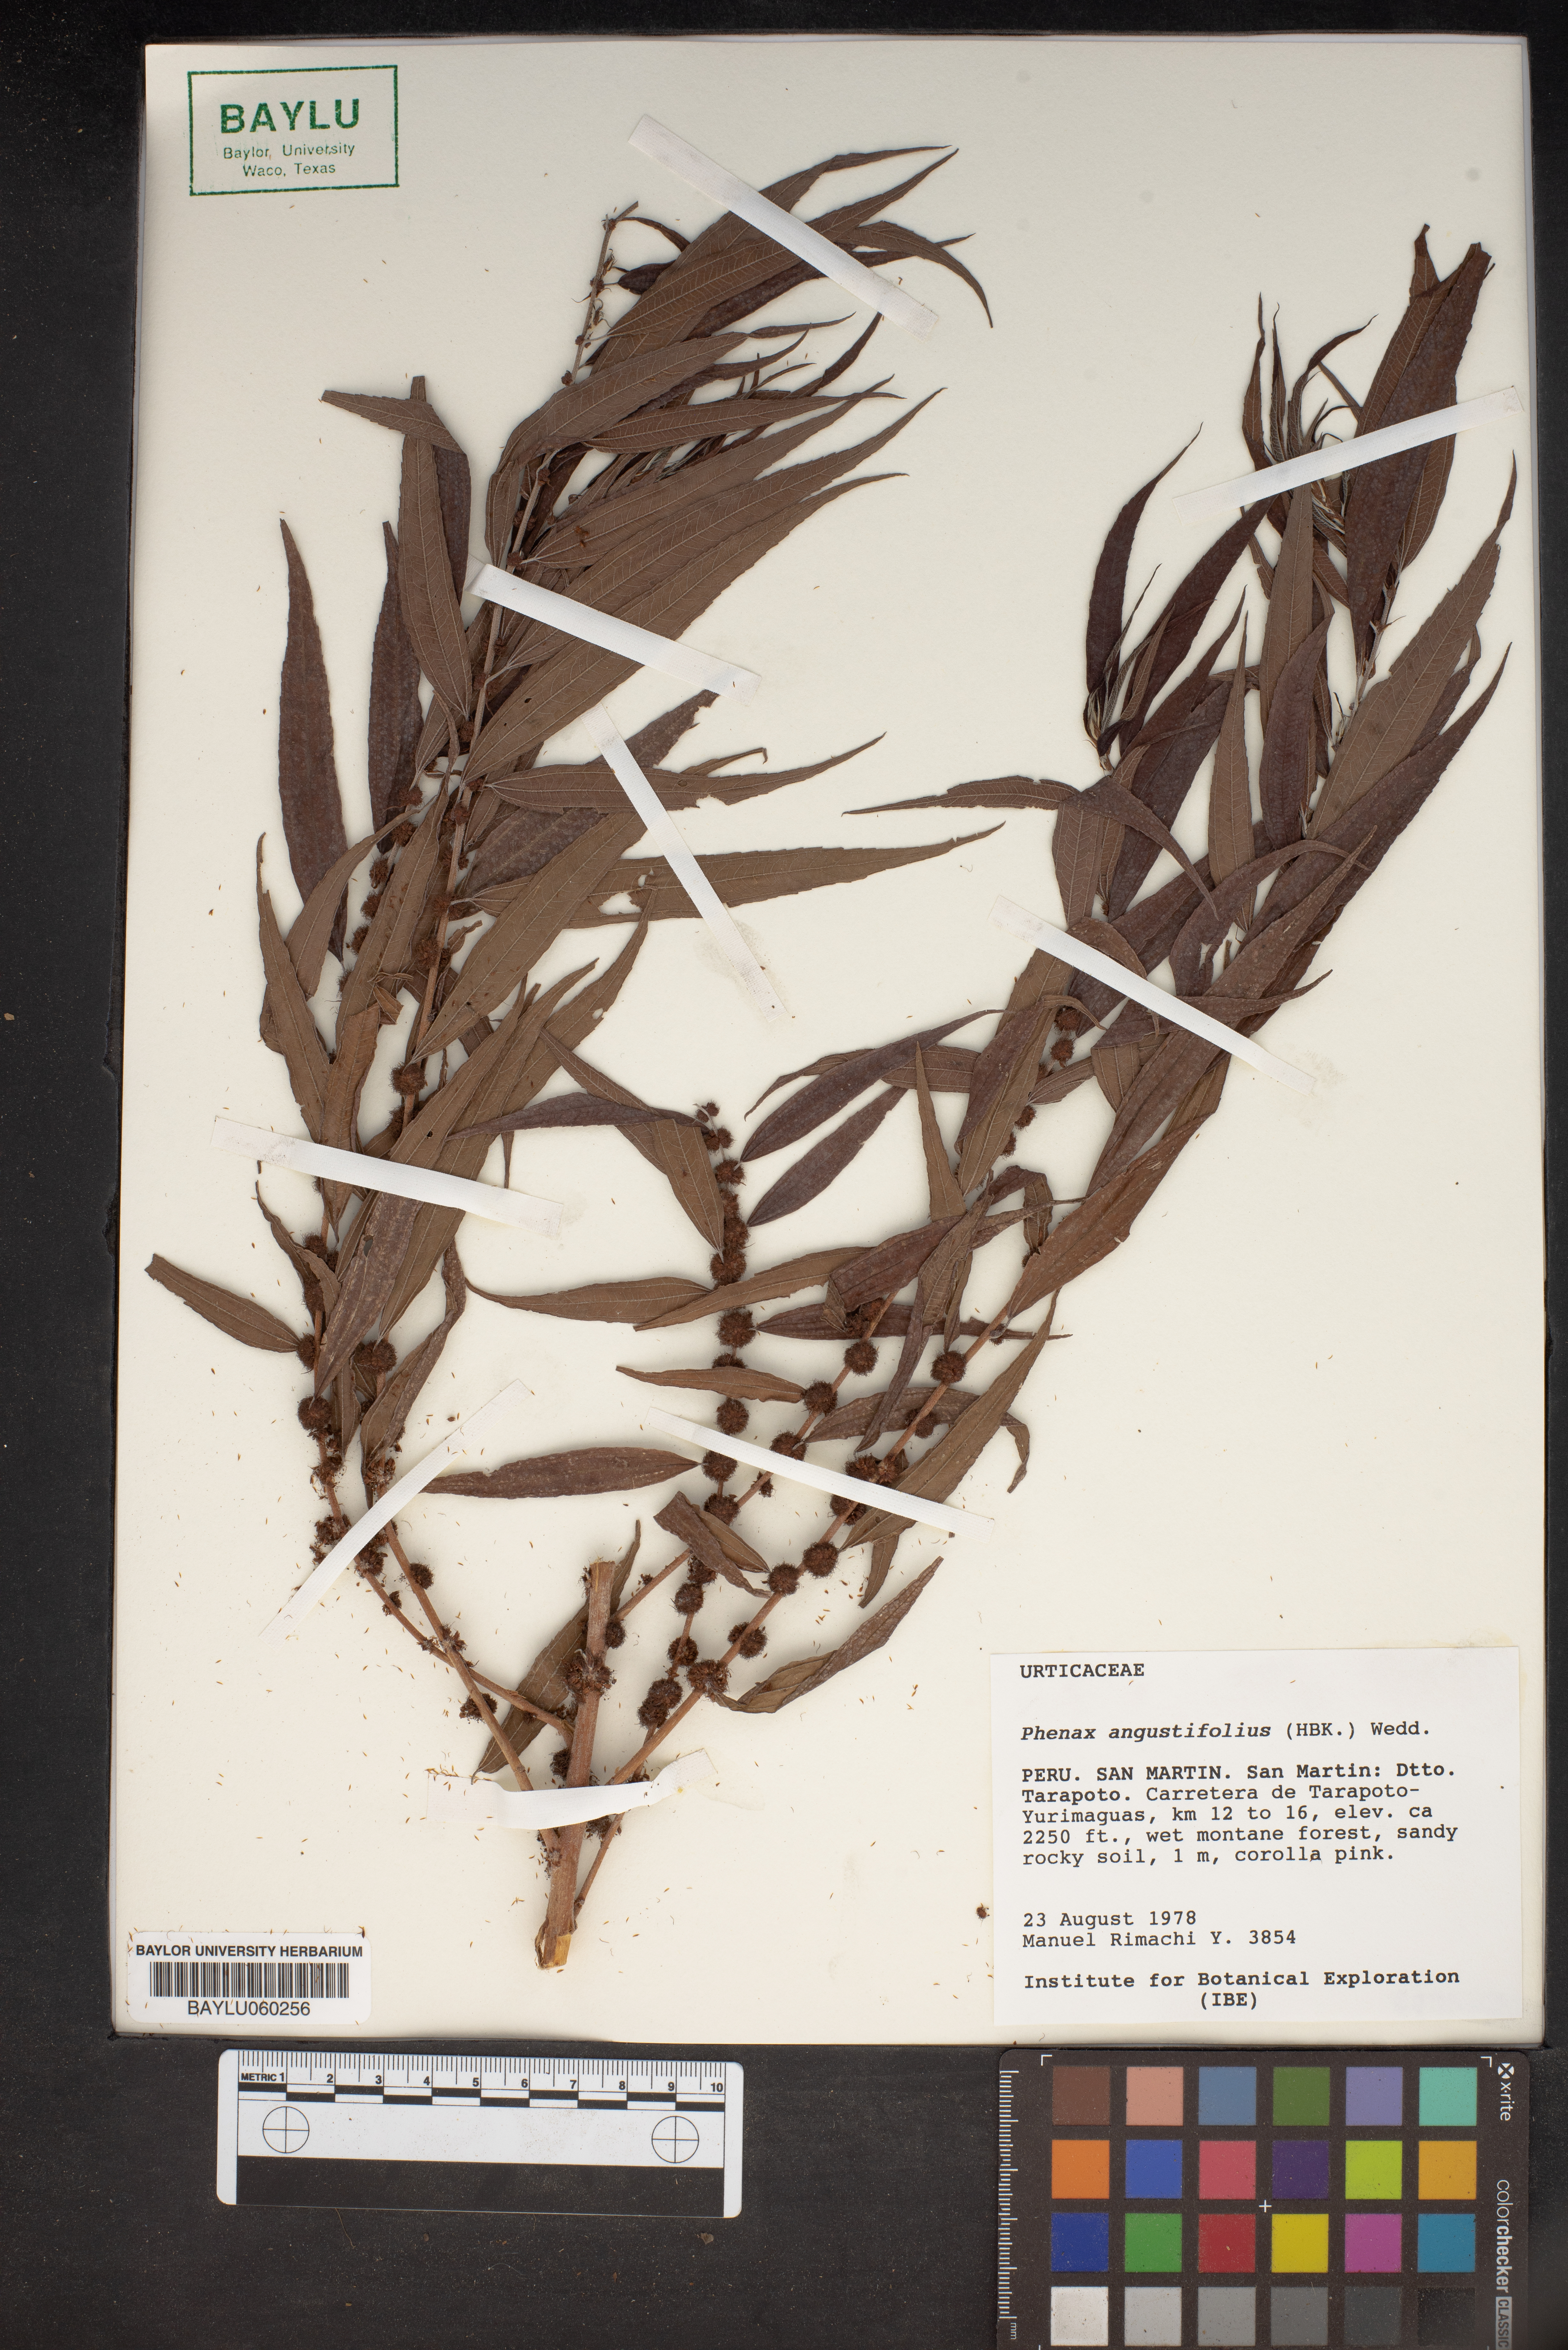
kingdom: Plantae
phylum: Tracheophyta
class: Magnoliopsida
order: Rosales
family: Urticaceae
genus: Phenax
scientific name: Phenax angustifolius
